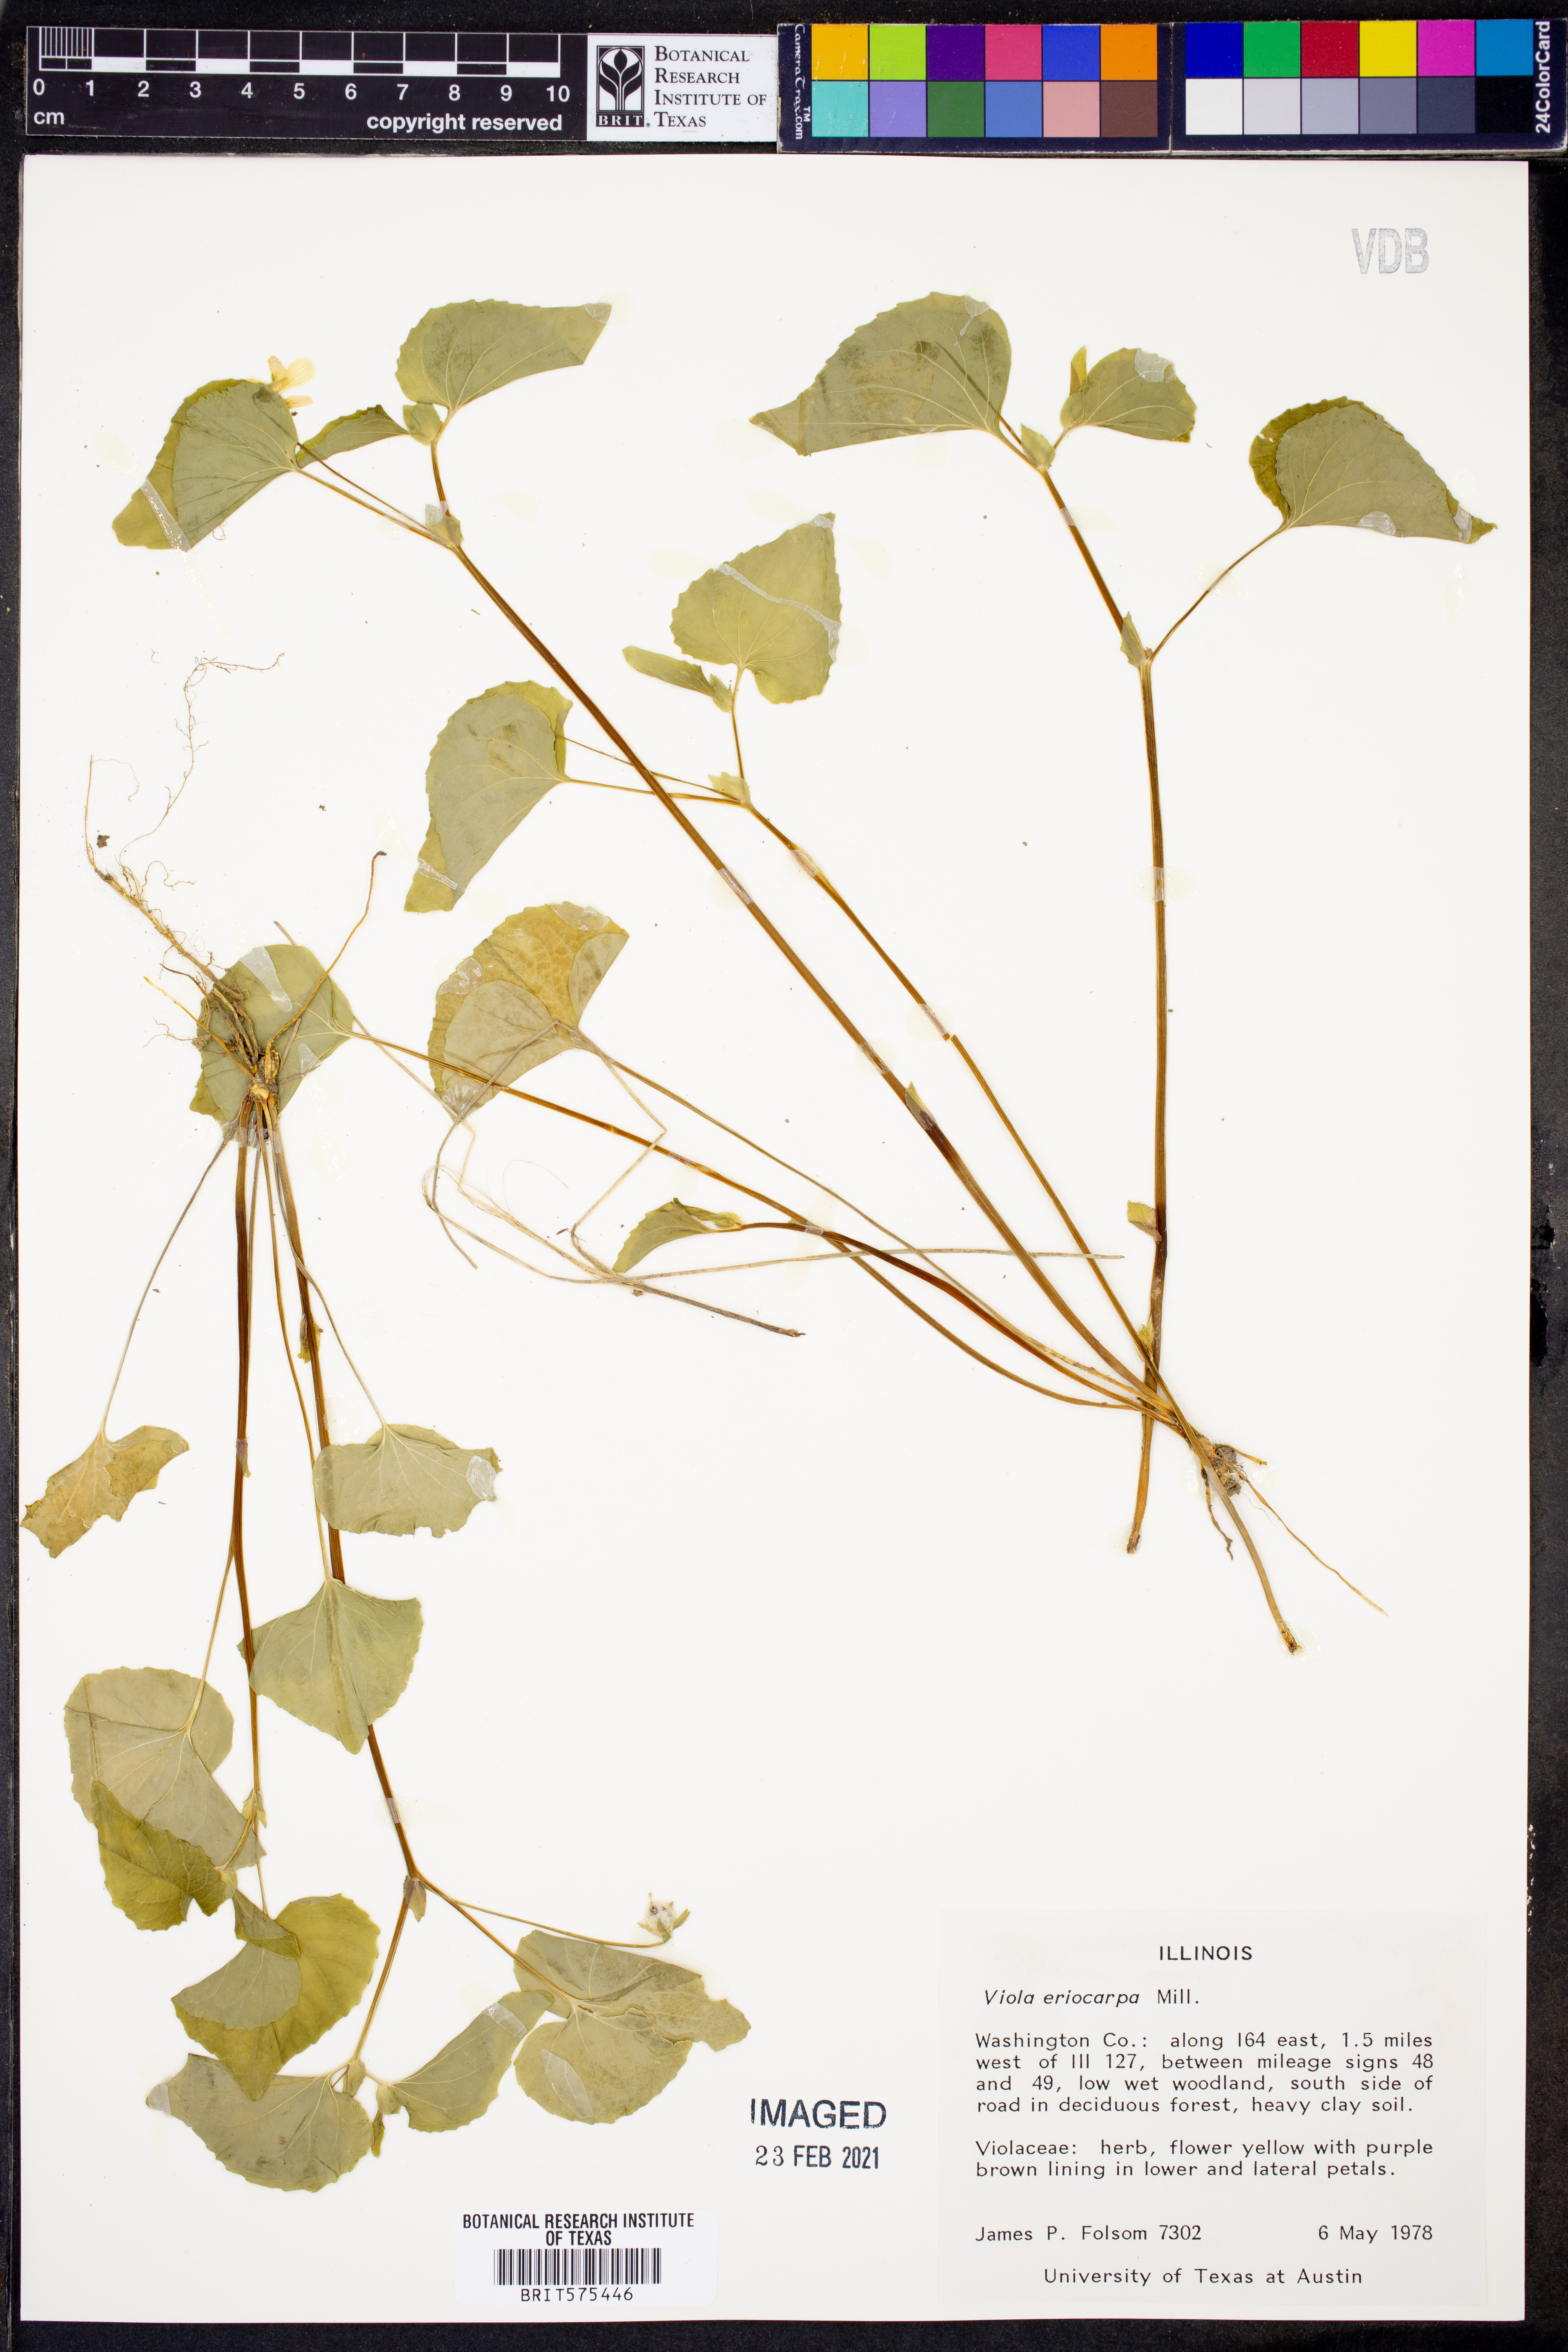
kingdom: Plantae
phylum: Tracheophyta
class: Magnoliopsida
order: Malpighiales
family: Violaceae
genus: Viola
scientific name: Viola eriocarpa
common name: Smooth yellow violet
